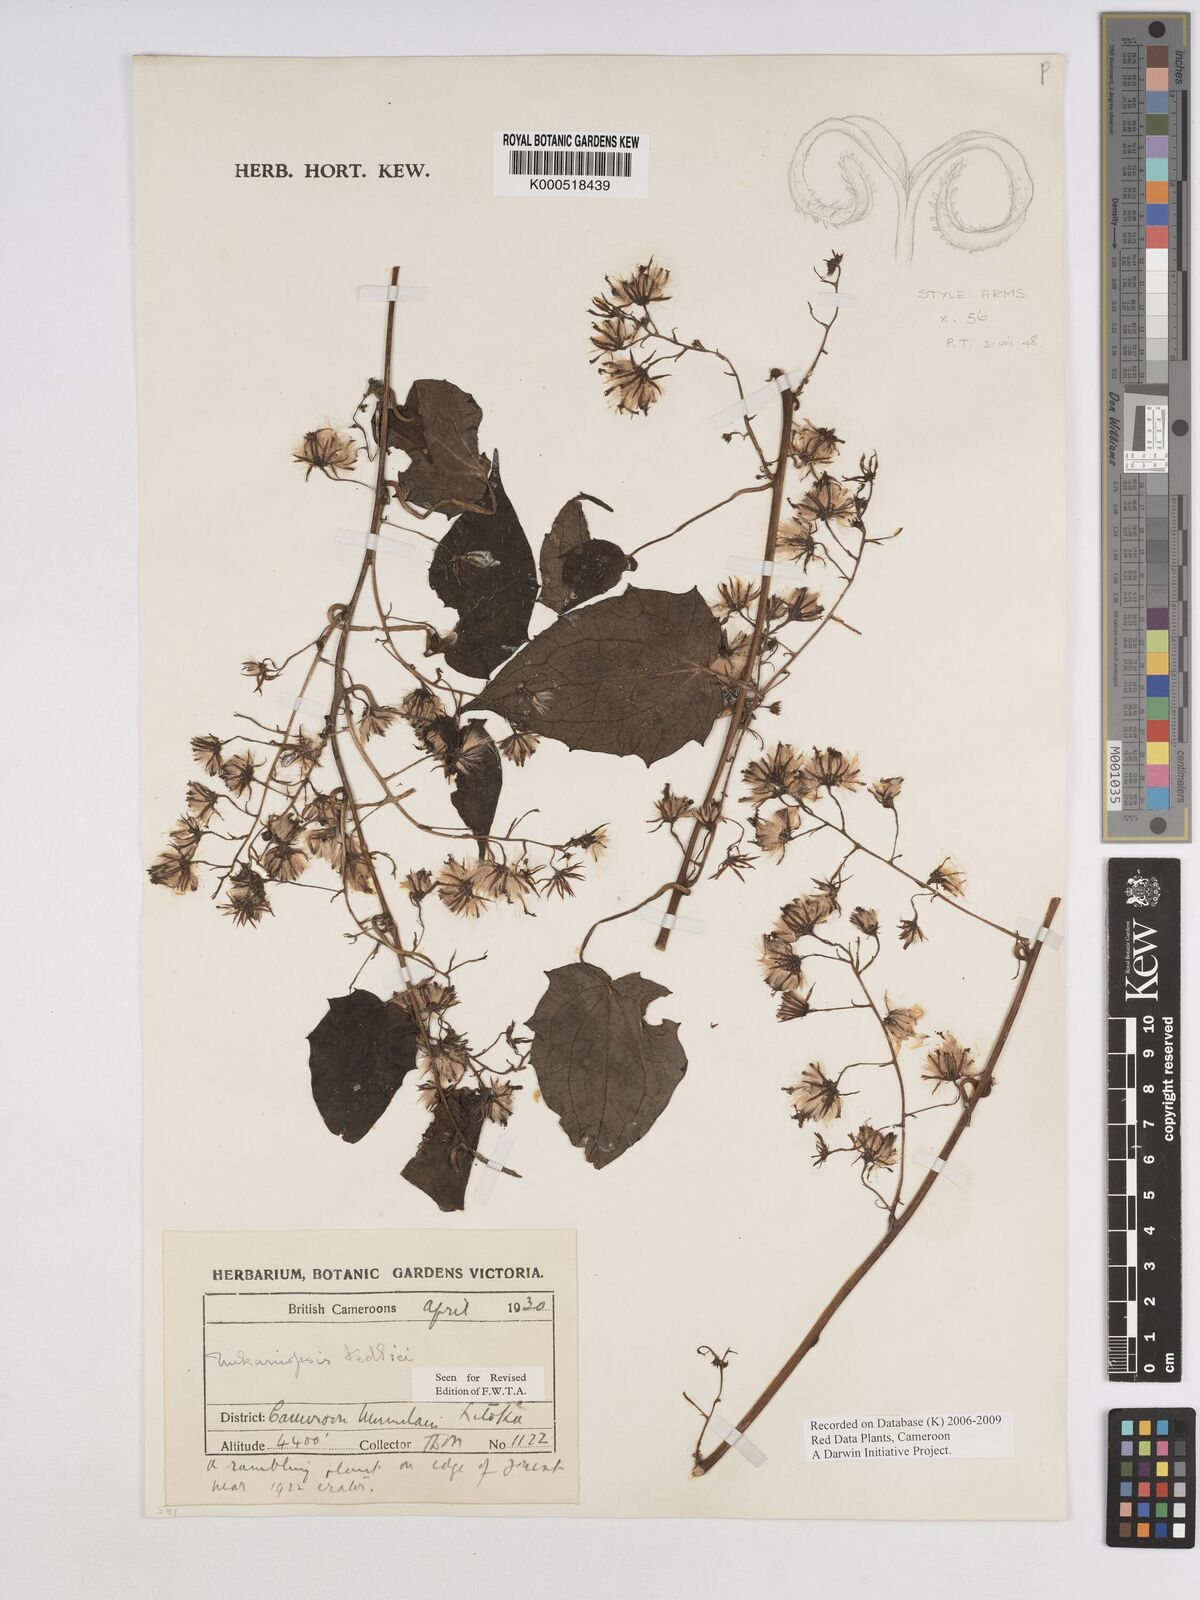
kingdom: Plantae
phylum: Tracheophyta
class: Magnoliopsida
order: Asterales
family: Asteraceae
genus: Mikaniopsis
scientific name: Mikaniopsis tedliei
